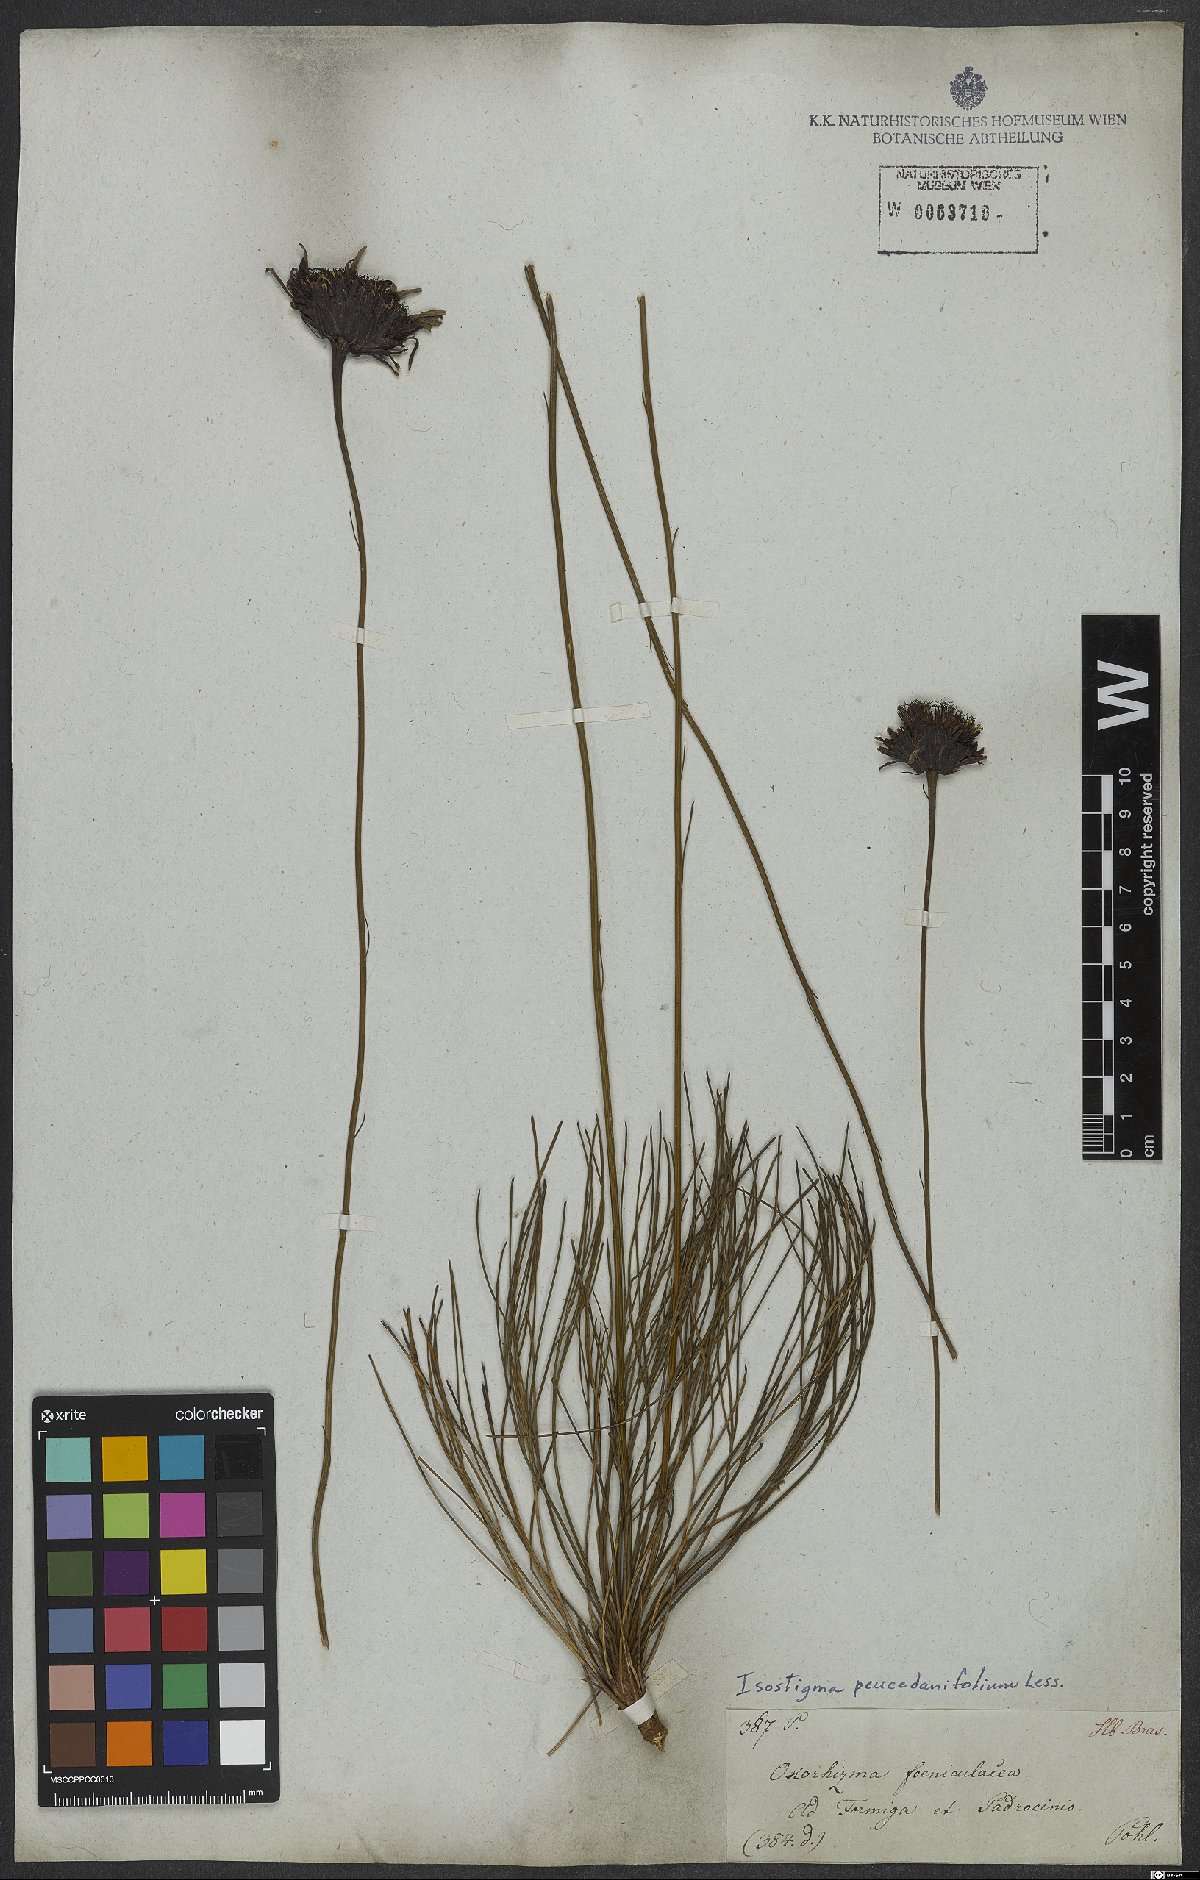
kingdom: Plantae
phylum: Tracheophyta
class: Magnoliopsida
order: Asterales
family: Asteraceae
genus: Isostigma
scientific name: Isostigma peucedanifolium
